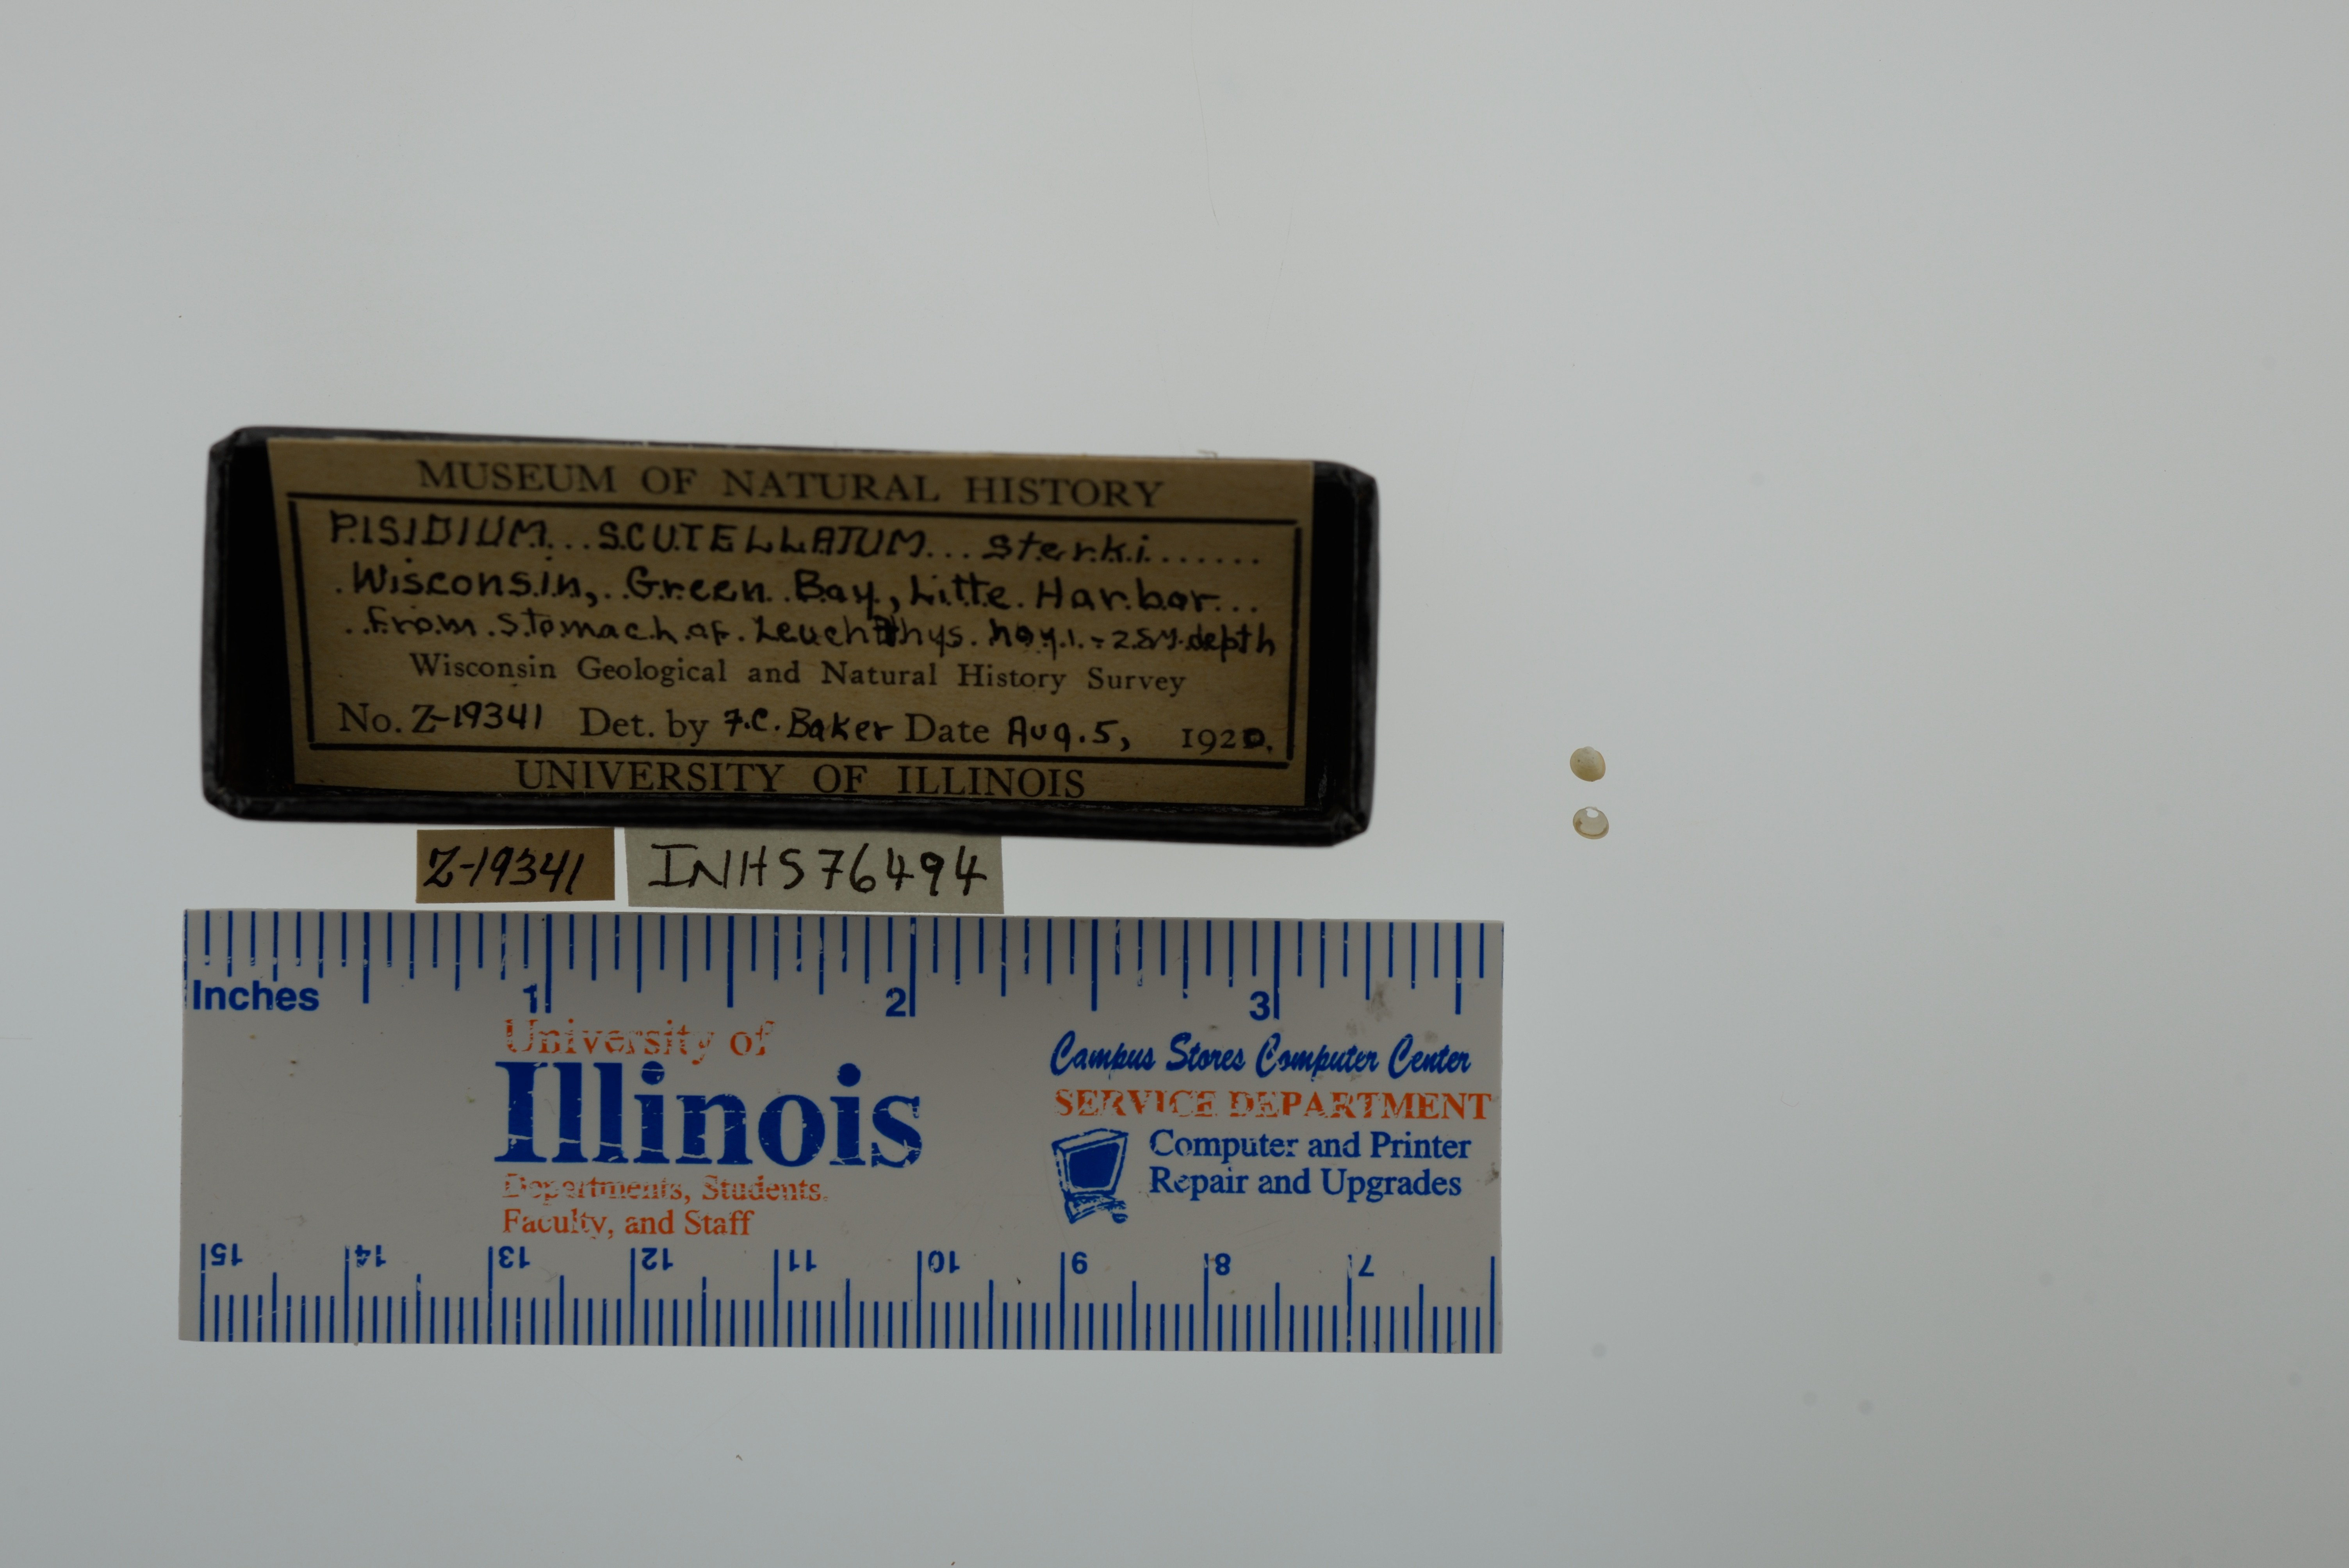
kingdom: Animalia
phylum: Mollusca
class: Bivalvia
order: Sphaeriida
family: Sphaeriidae
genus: Euglesa
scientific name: Euglesa lilljeborgii
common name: Lilljeborg peaclam
